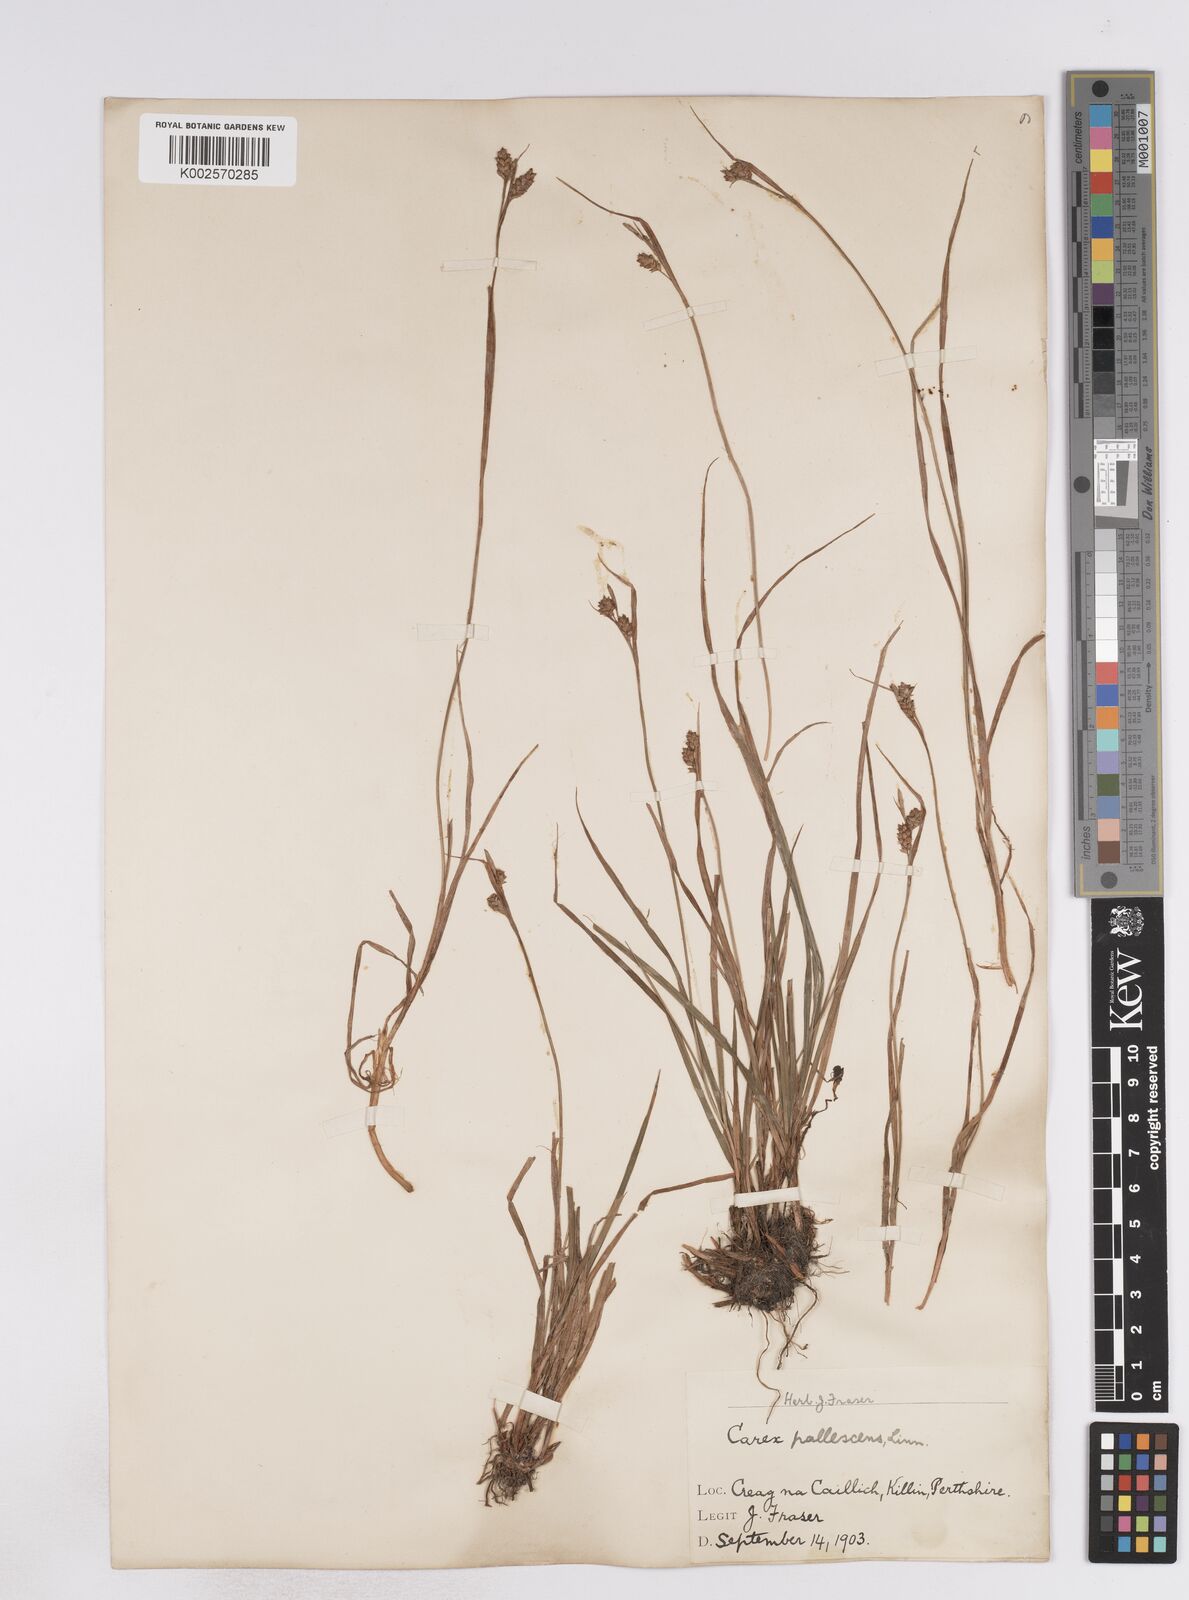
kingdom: Plantae
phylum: Tracheophyta
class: Liliopsida
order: Poales
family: Cyperaceae
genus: Carex
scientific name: Carex pallescens
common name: Pale sedge
